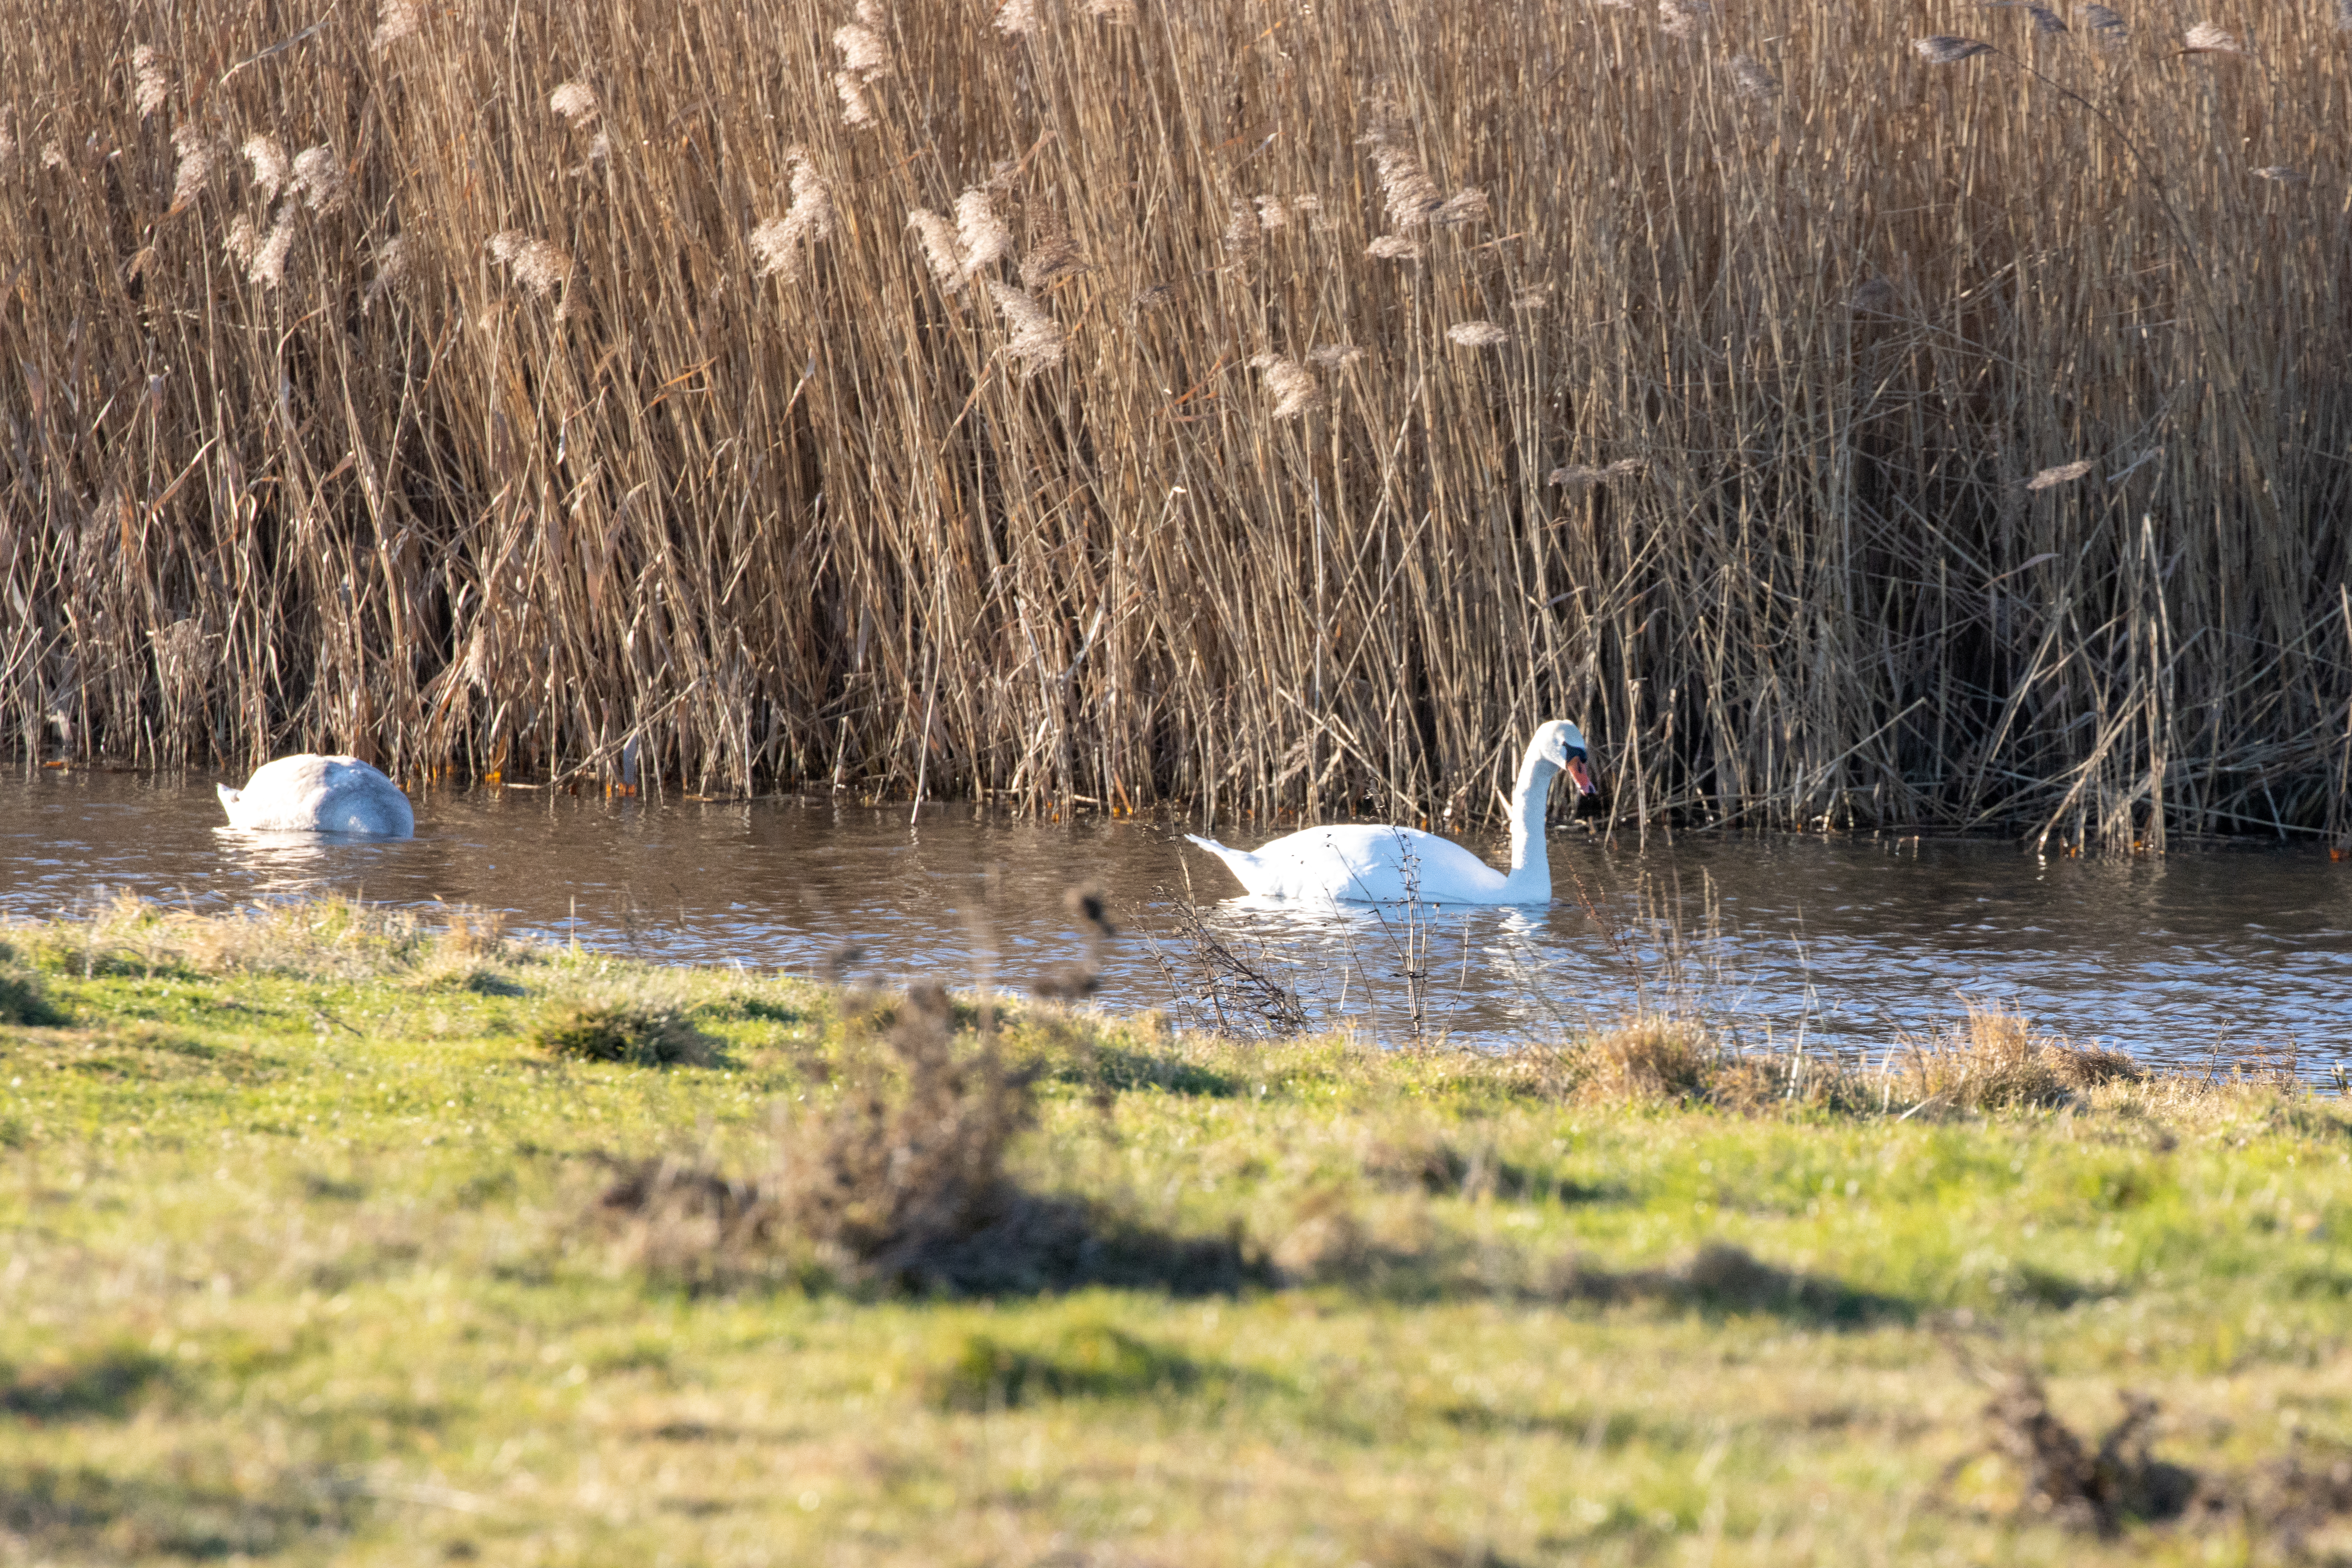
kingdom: Animalia
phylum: Chordata
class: Aves
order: Anseriformes
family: Anatidae
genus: Cygnus
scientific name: Cygnus olor
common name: Knopsvane
